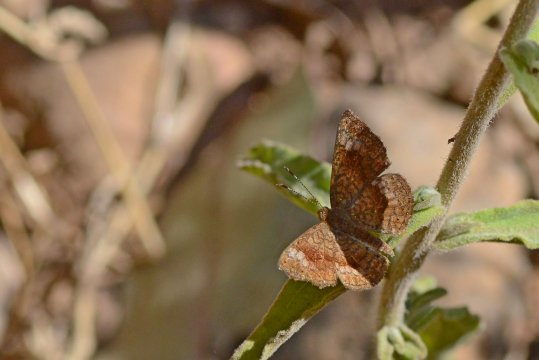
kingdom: Animalia
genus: Calephelis
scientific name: Calephelis arizonensis
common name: Arizona Metalmark
